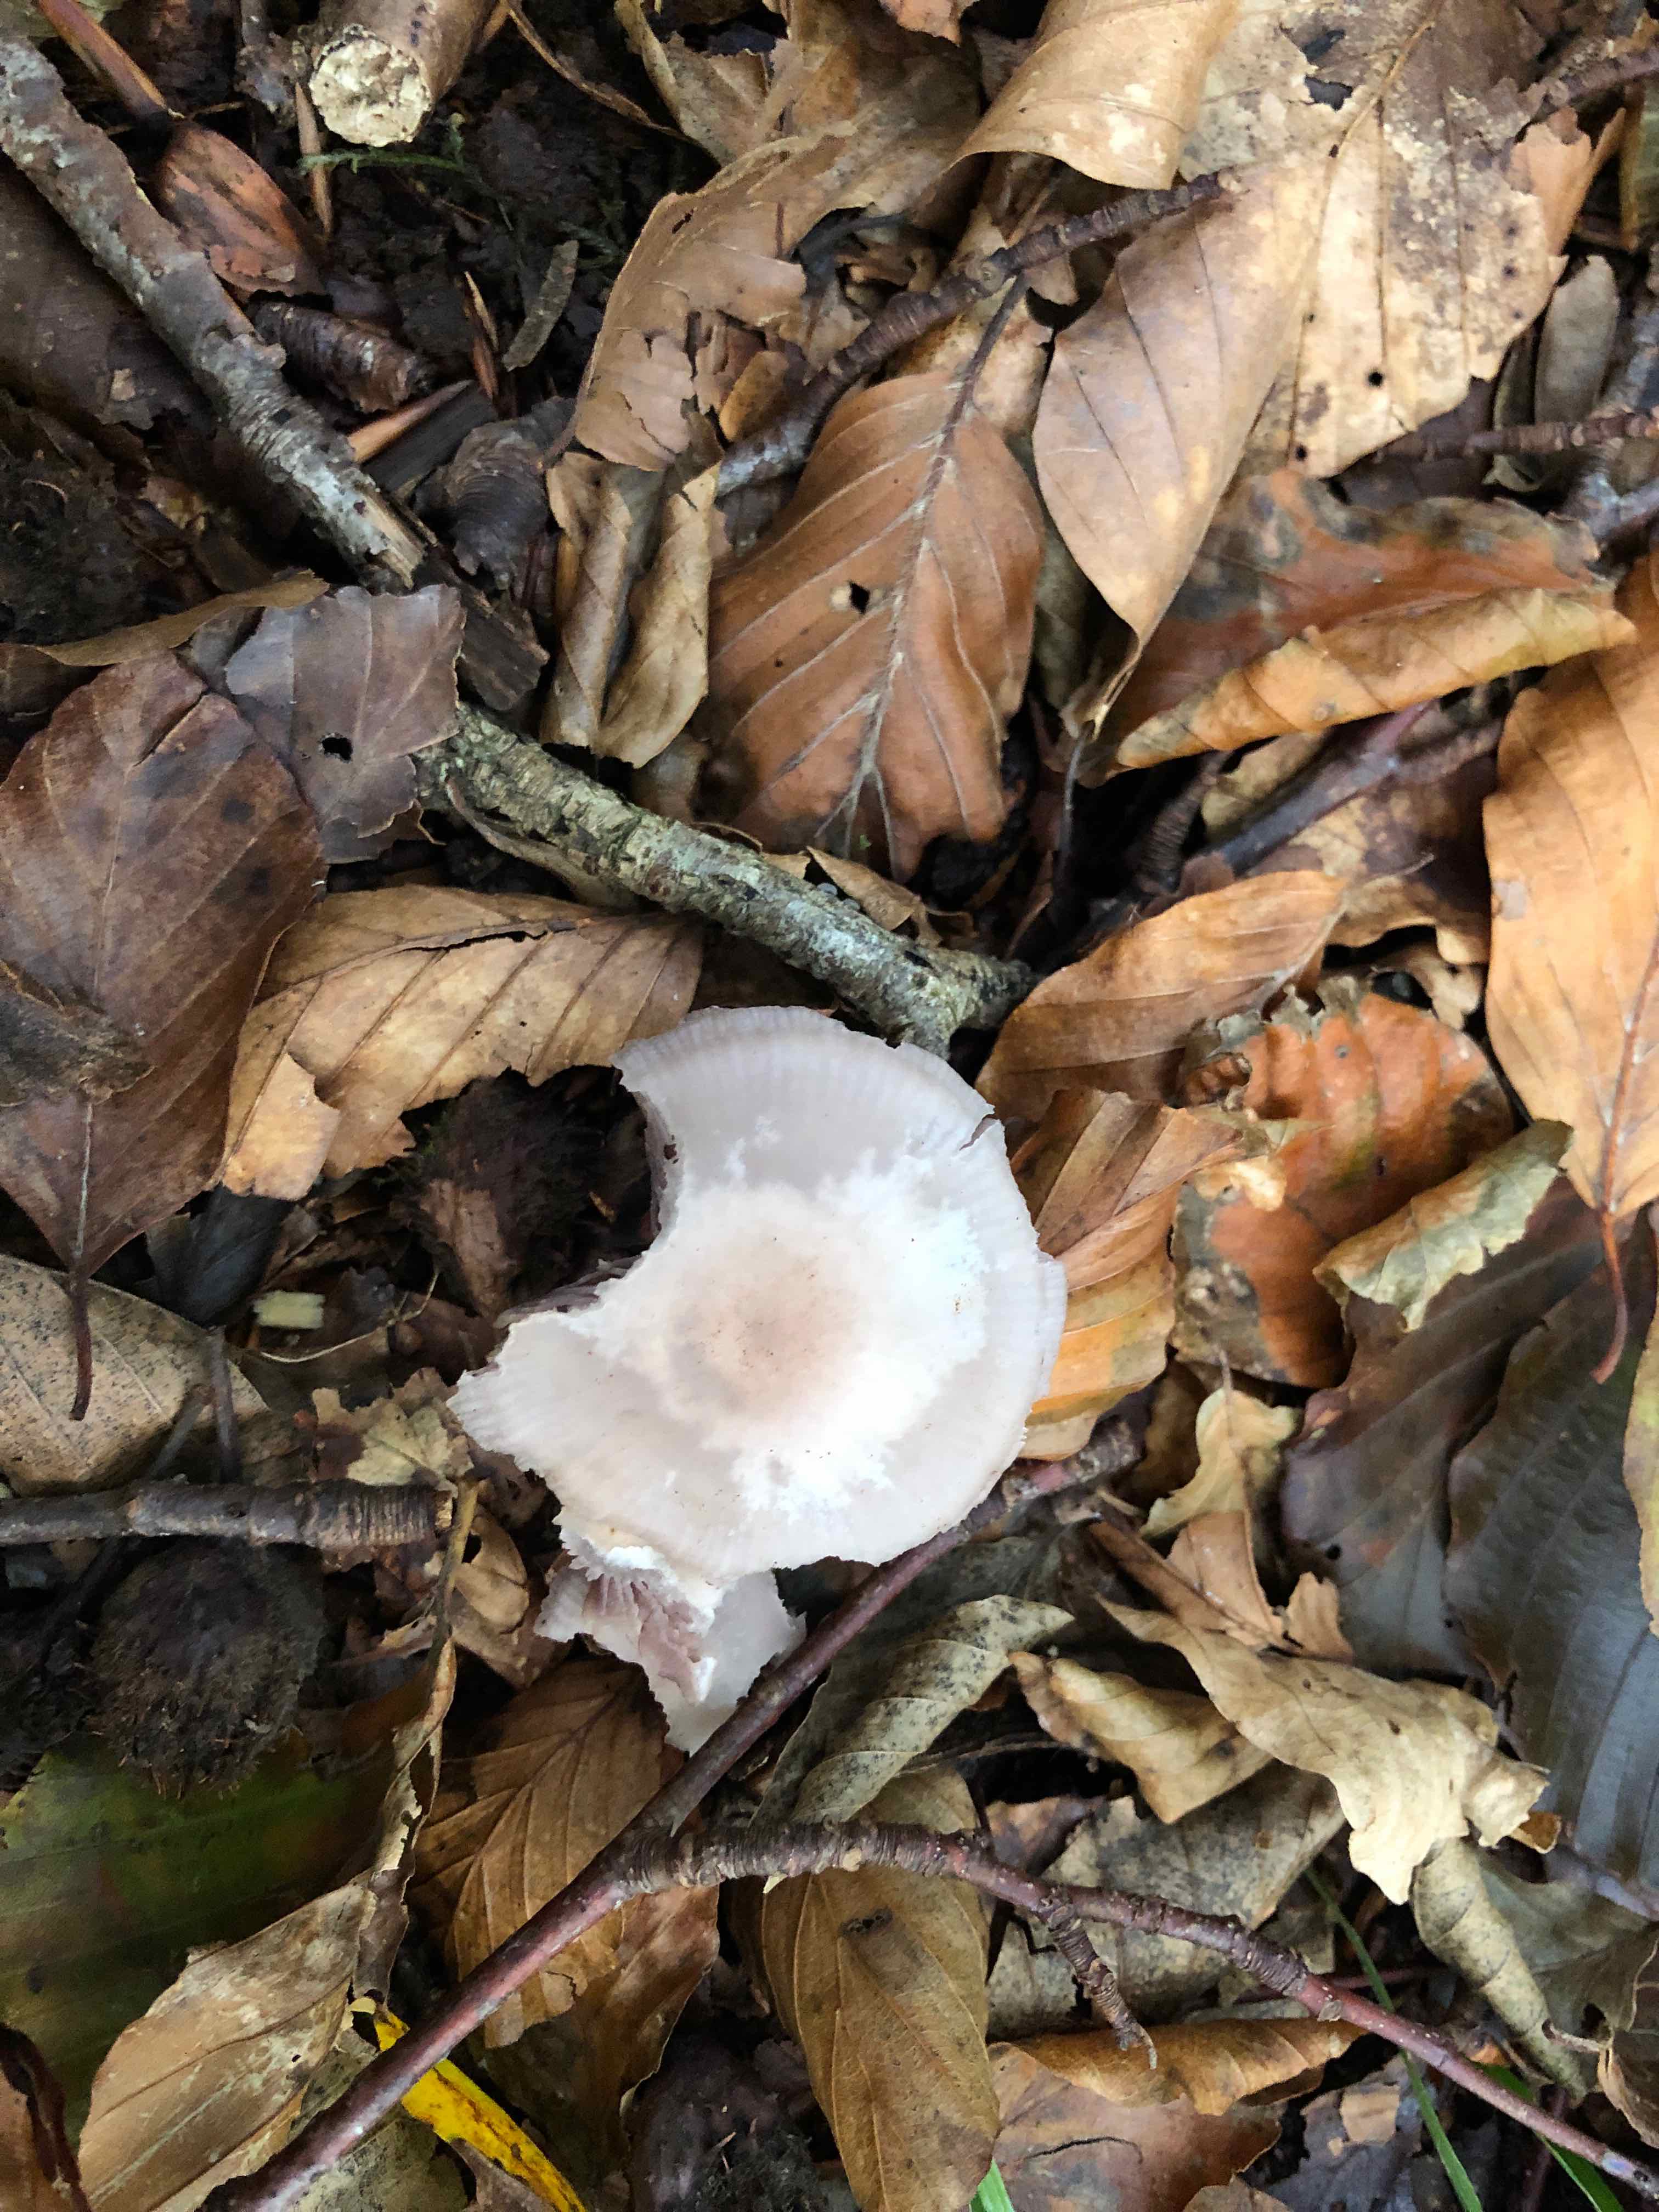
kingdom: Fungi
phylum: Basidiomycota
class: Agaricomycetes
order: Agaricales
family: Mycenaceae
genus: Mycena
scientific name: Mycena pelianthina
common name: mørkbladet huesvamp
